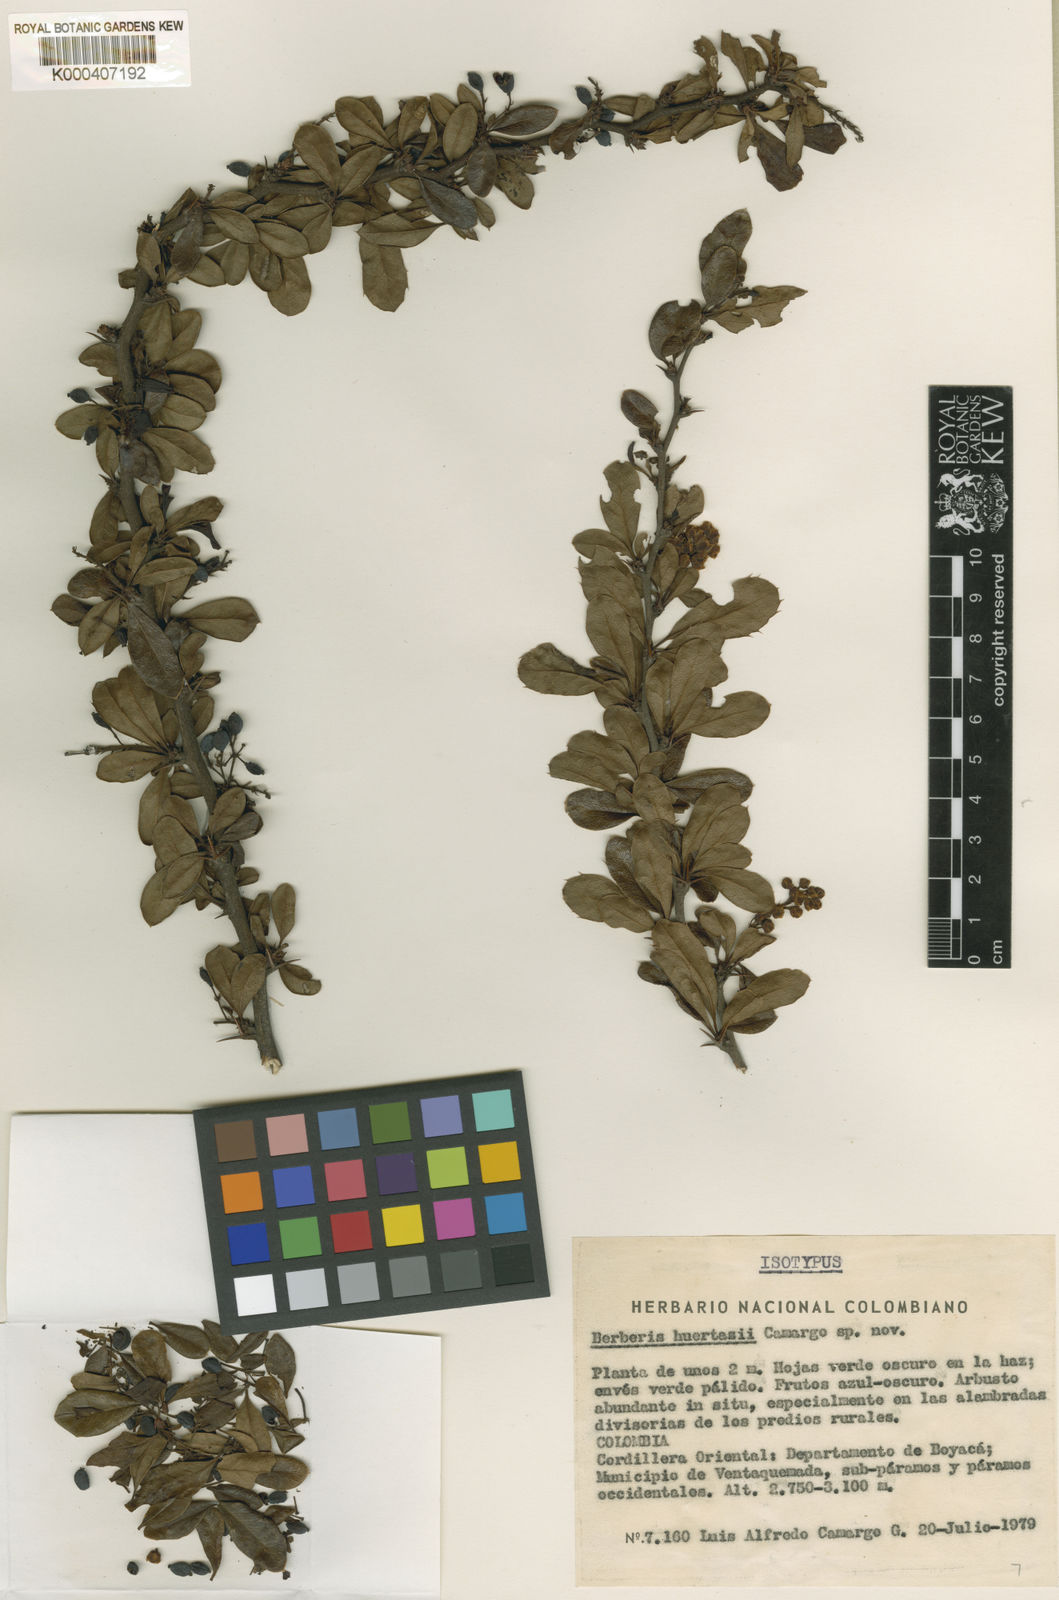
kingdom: Plantae
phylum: Tracheophyta
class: Magnoliopsida
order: Ranunculales
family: Berberidaceae
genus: Berberis
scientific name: Berberis huertasii
